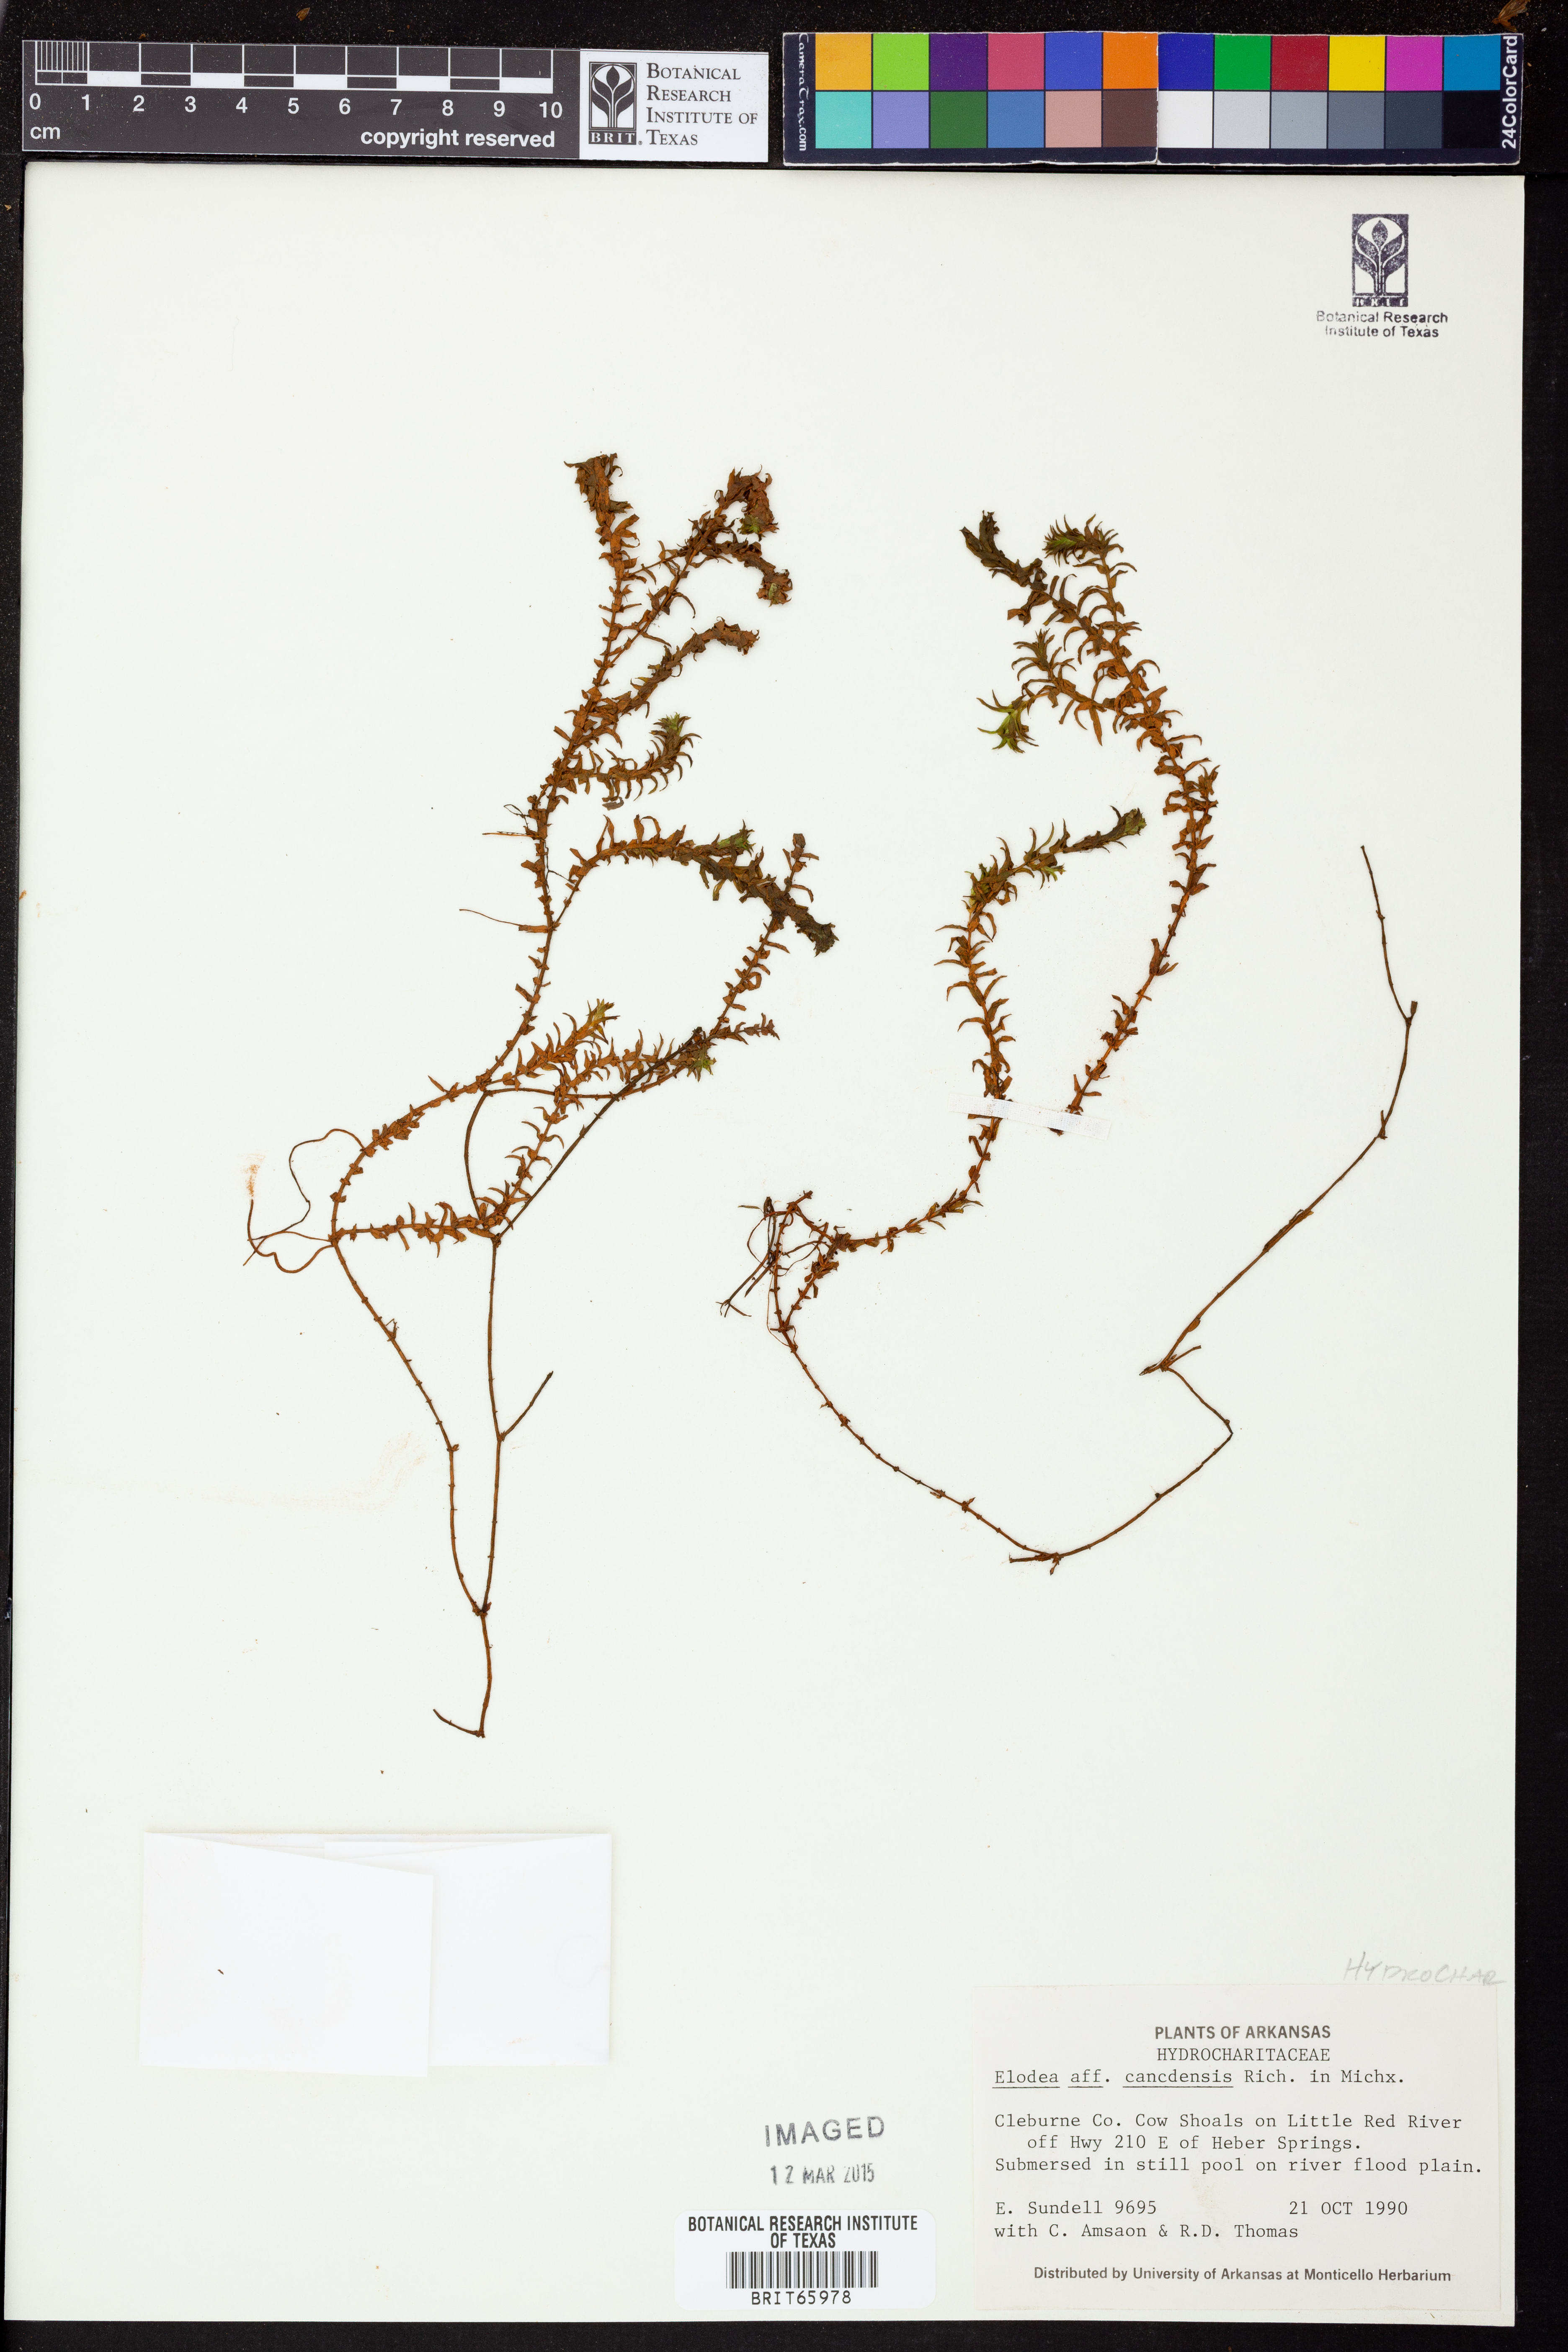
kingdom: Plantae
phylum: Tracheophyta
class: Liliopsida
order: Alismatales
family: Hydrocharitaceae
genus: Elodea
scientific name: Elodea canadensis
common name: Canadian waterweed
